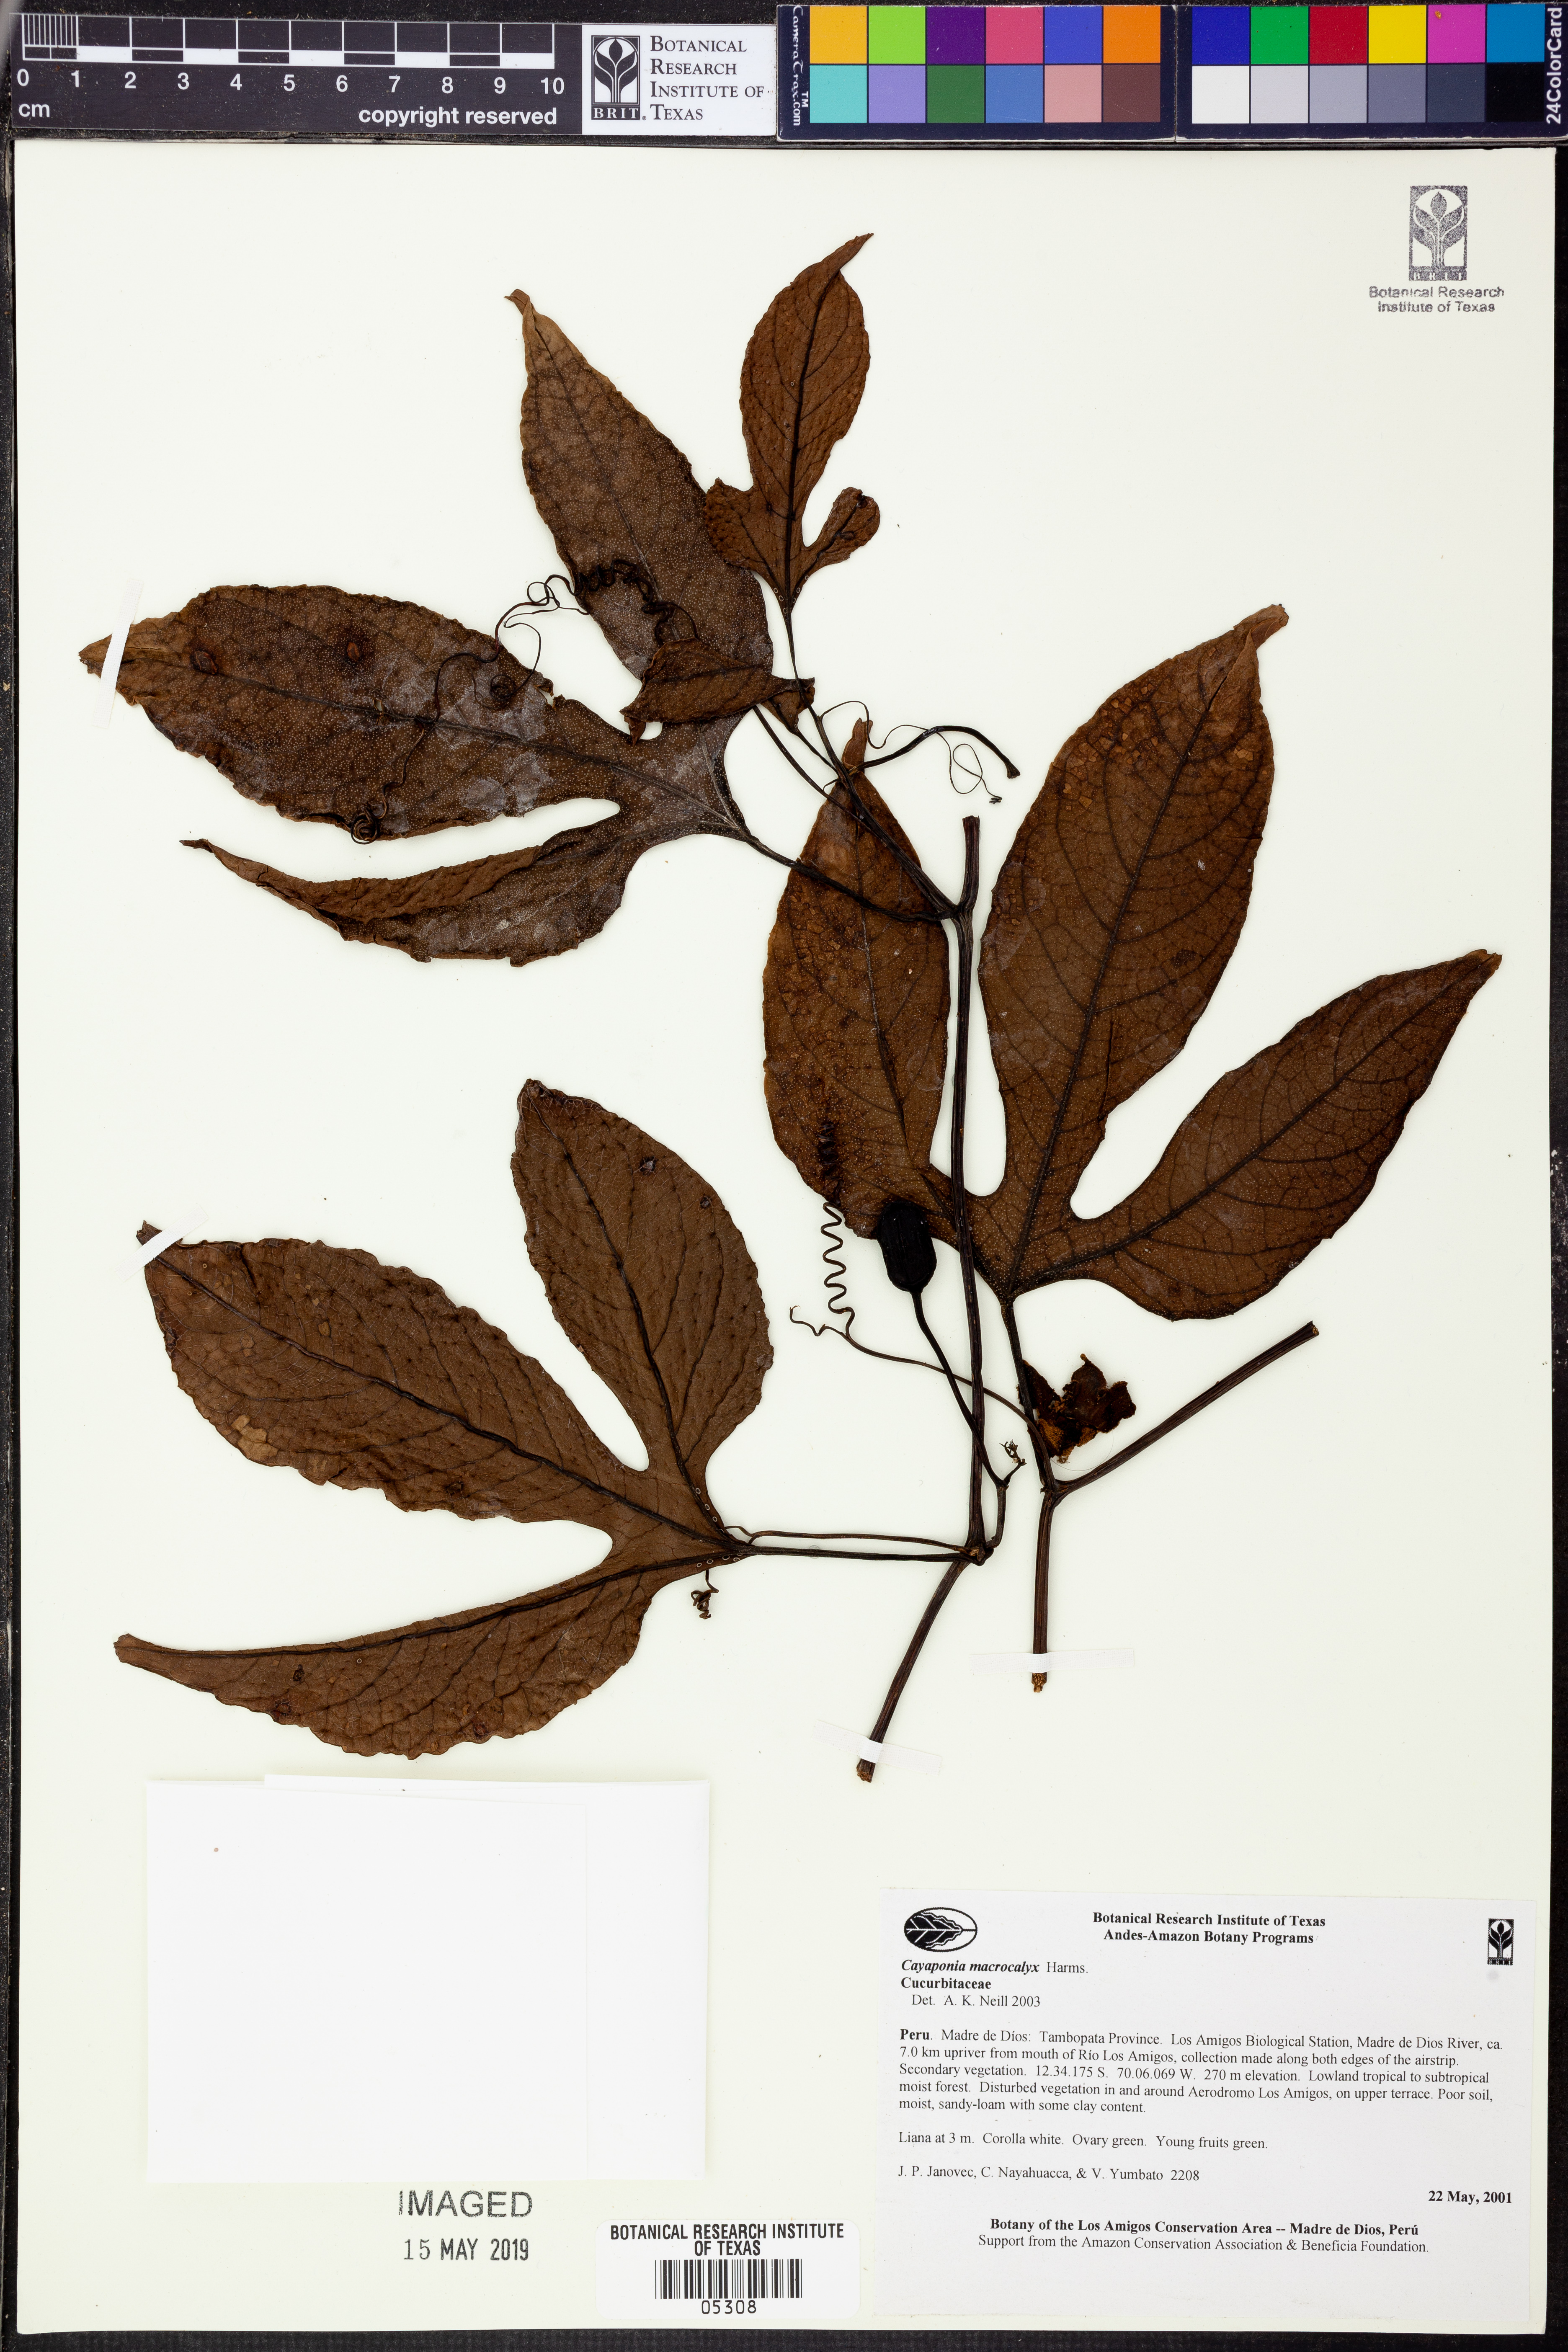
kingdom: Plantae
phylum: Tracheophyta
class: Magnoliopsida
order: Cucurbitales
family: Cucurbitaceae
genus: Cayaponia
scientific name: Cayaponia
